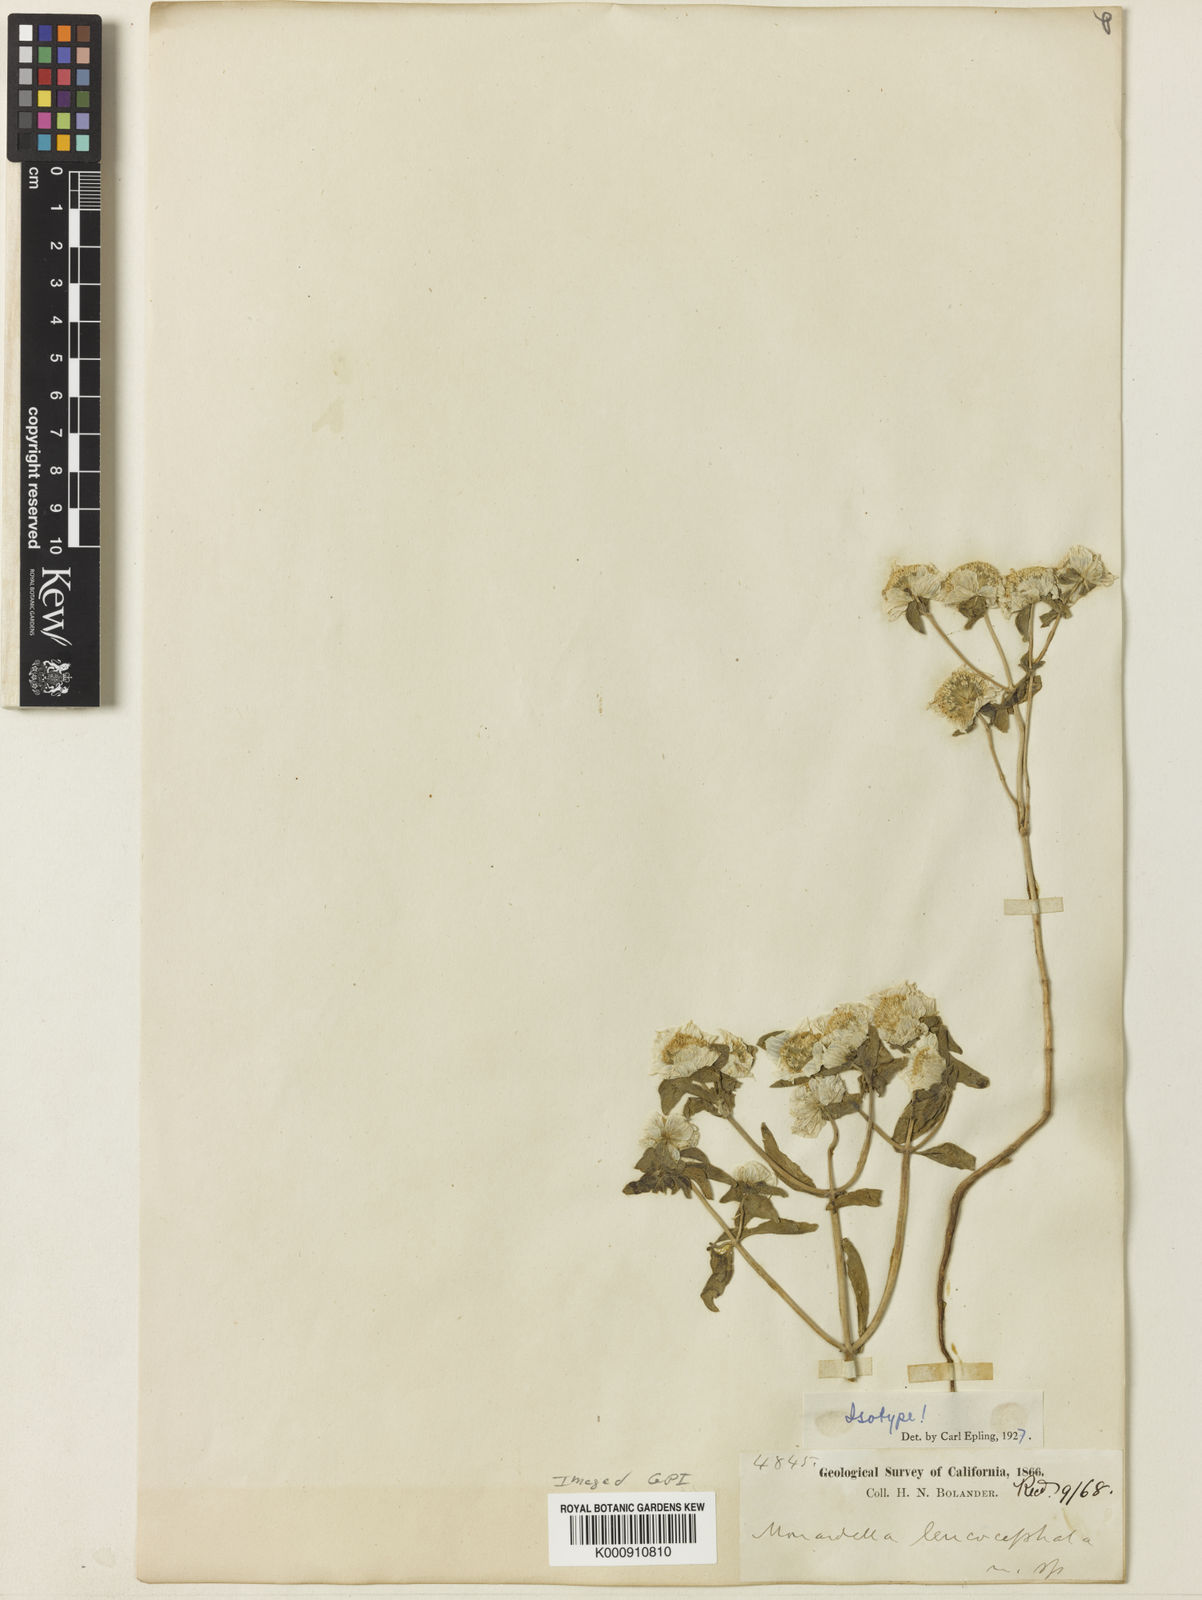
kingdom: Plantae
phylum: Tracheophyta
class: Magnoliopsida
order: Lamiales
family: Lamiaceae
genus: Monardella
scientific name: Monardella leucocephala
